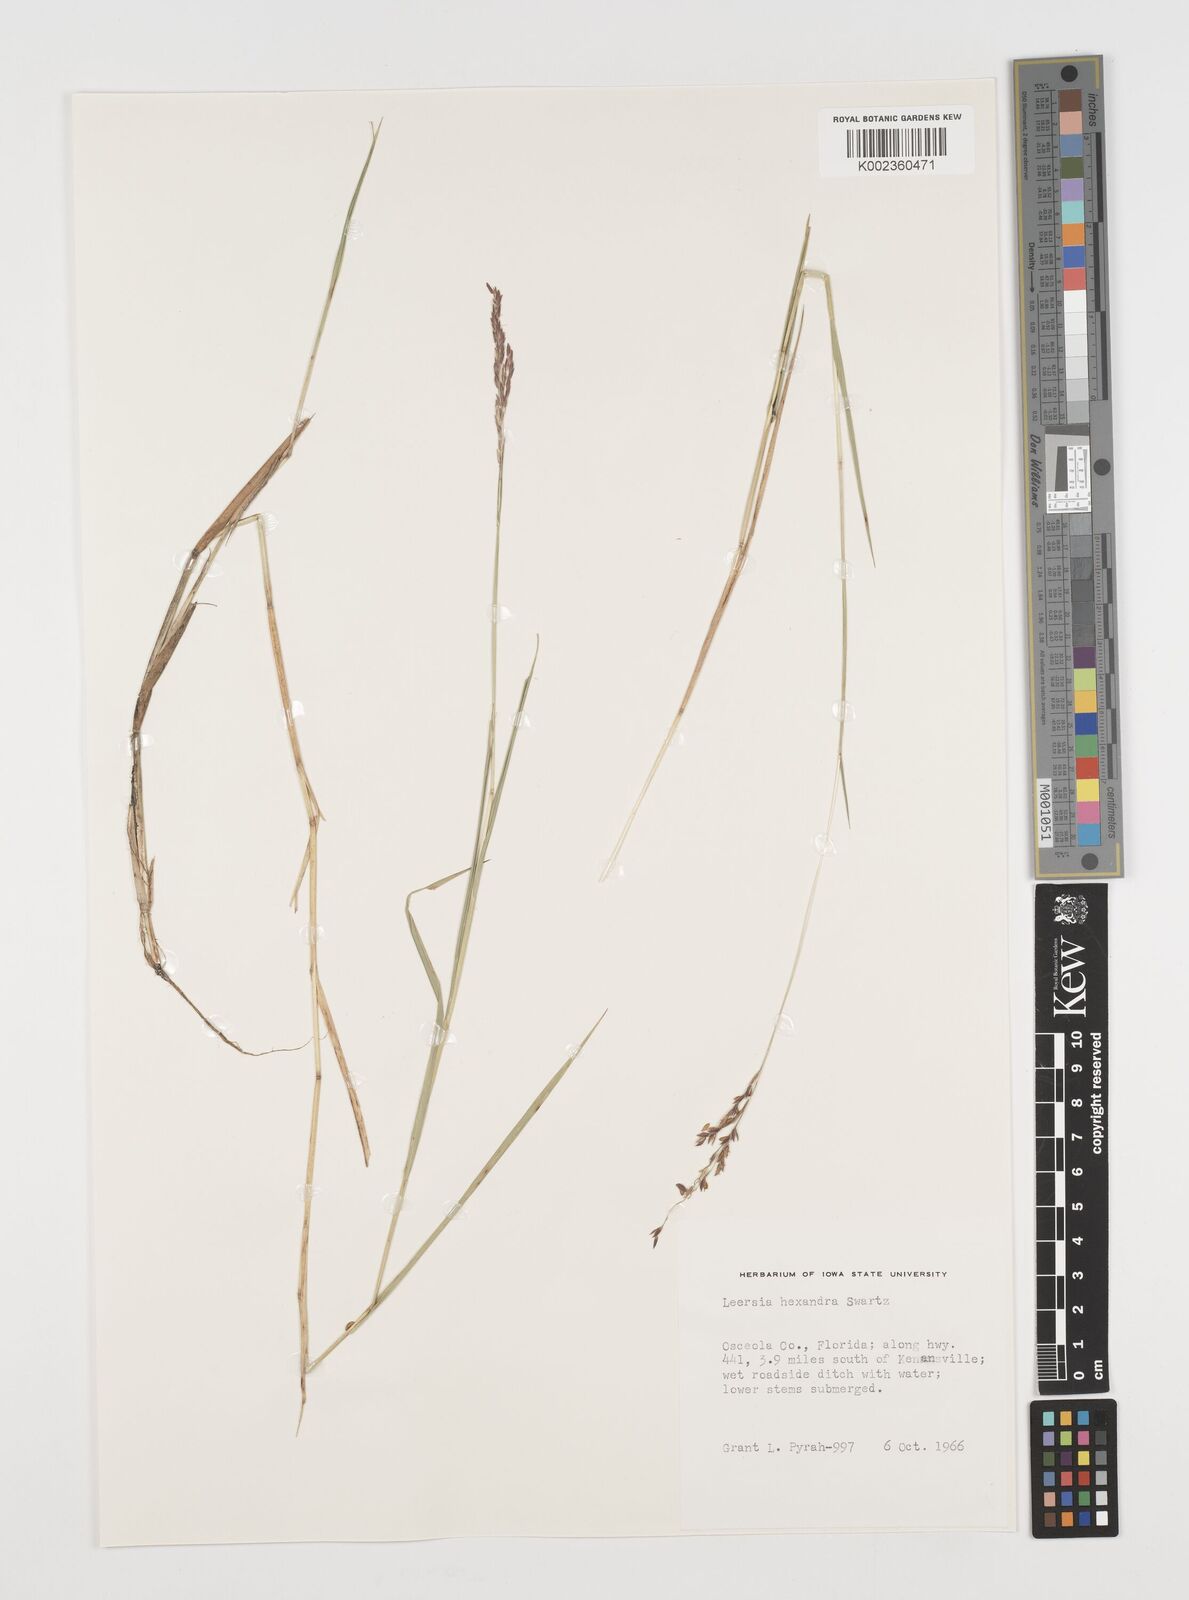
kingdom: Plantae
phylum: Tracheophyta
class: Liliopsida
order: Poales
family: Poaceae
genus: Leersia
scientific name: Leersia hexandra
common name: Southern cut grass
